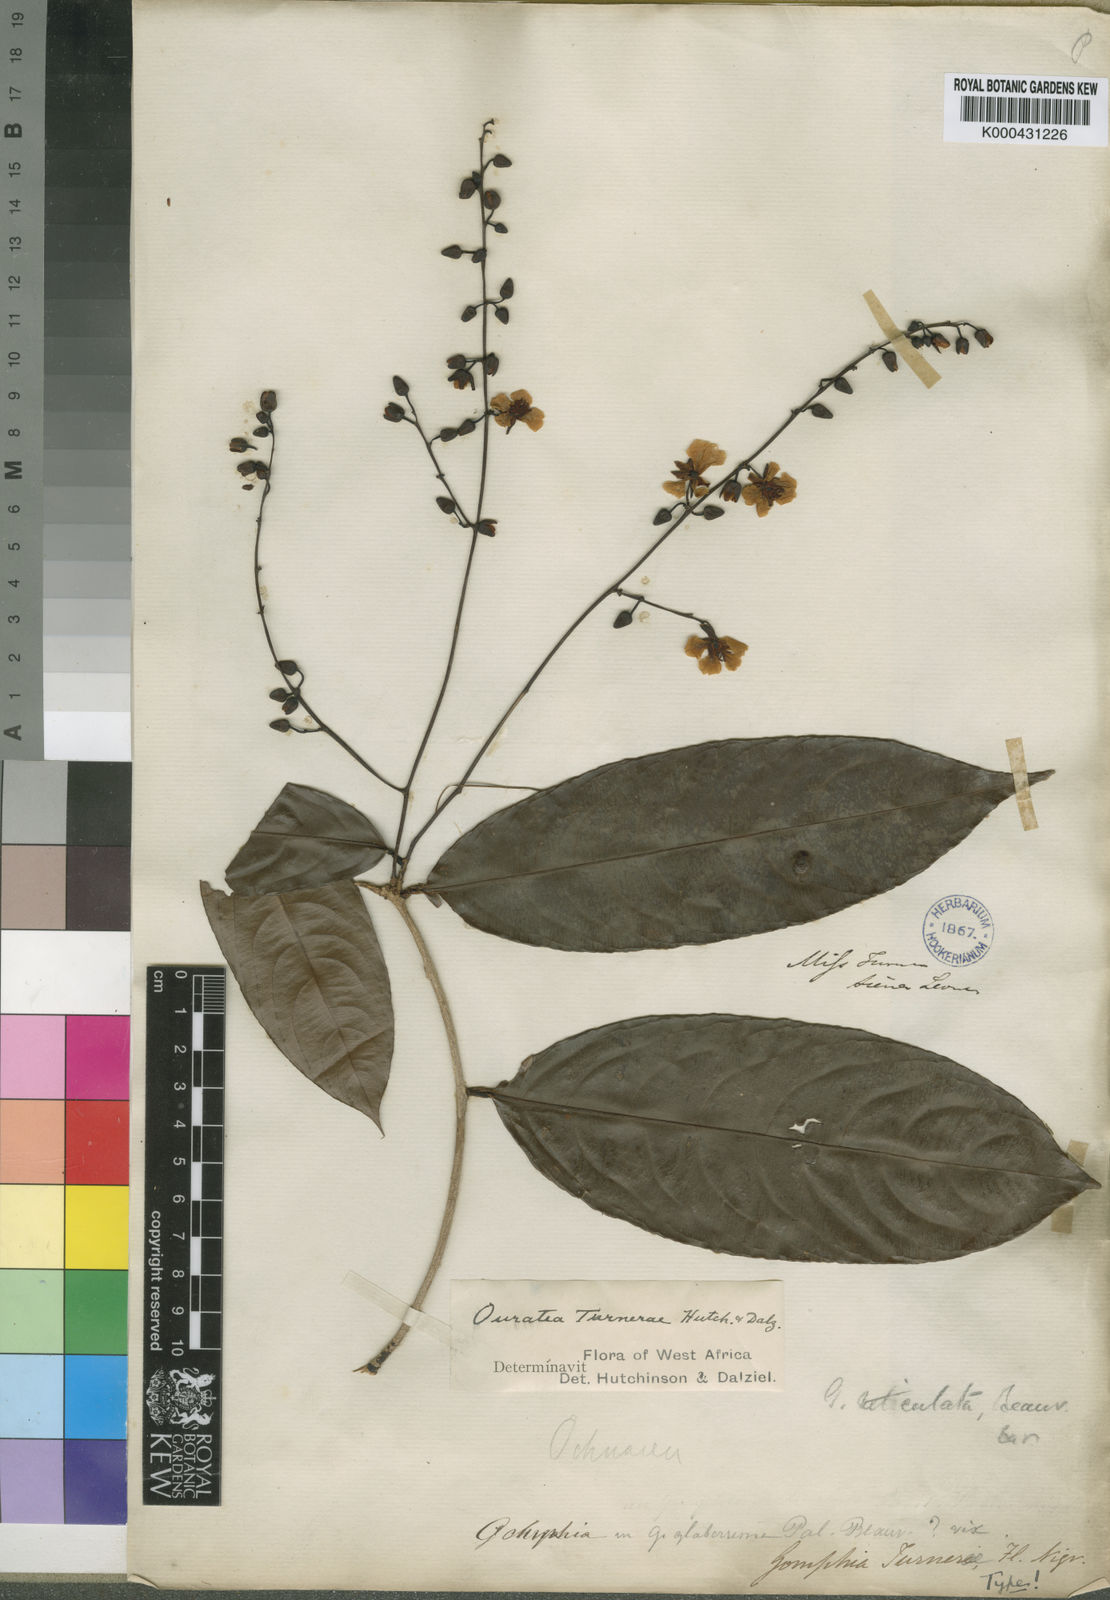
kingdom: Plantae
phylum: Tracheophyta
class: Magnoliopsida
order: Malpighiales
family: Ochnaceae
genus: Campylospermum
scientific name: Campylospermum reticulatum
